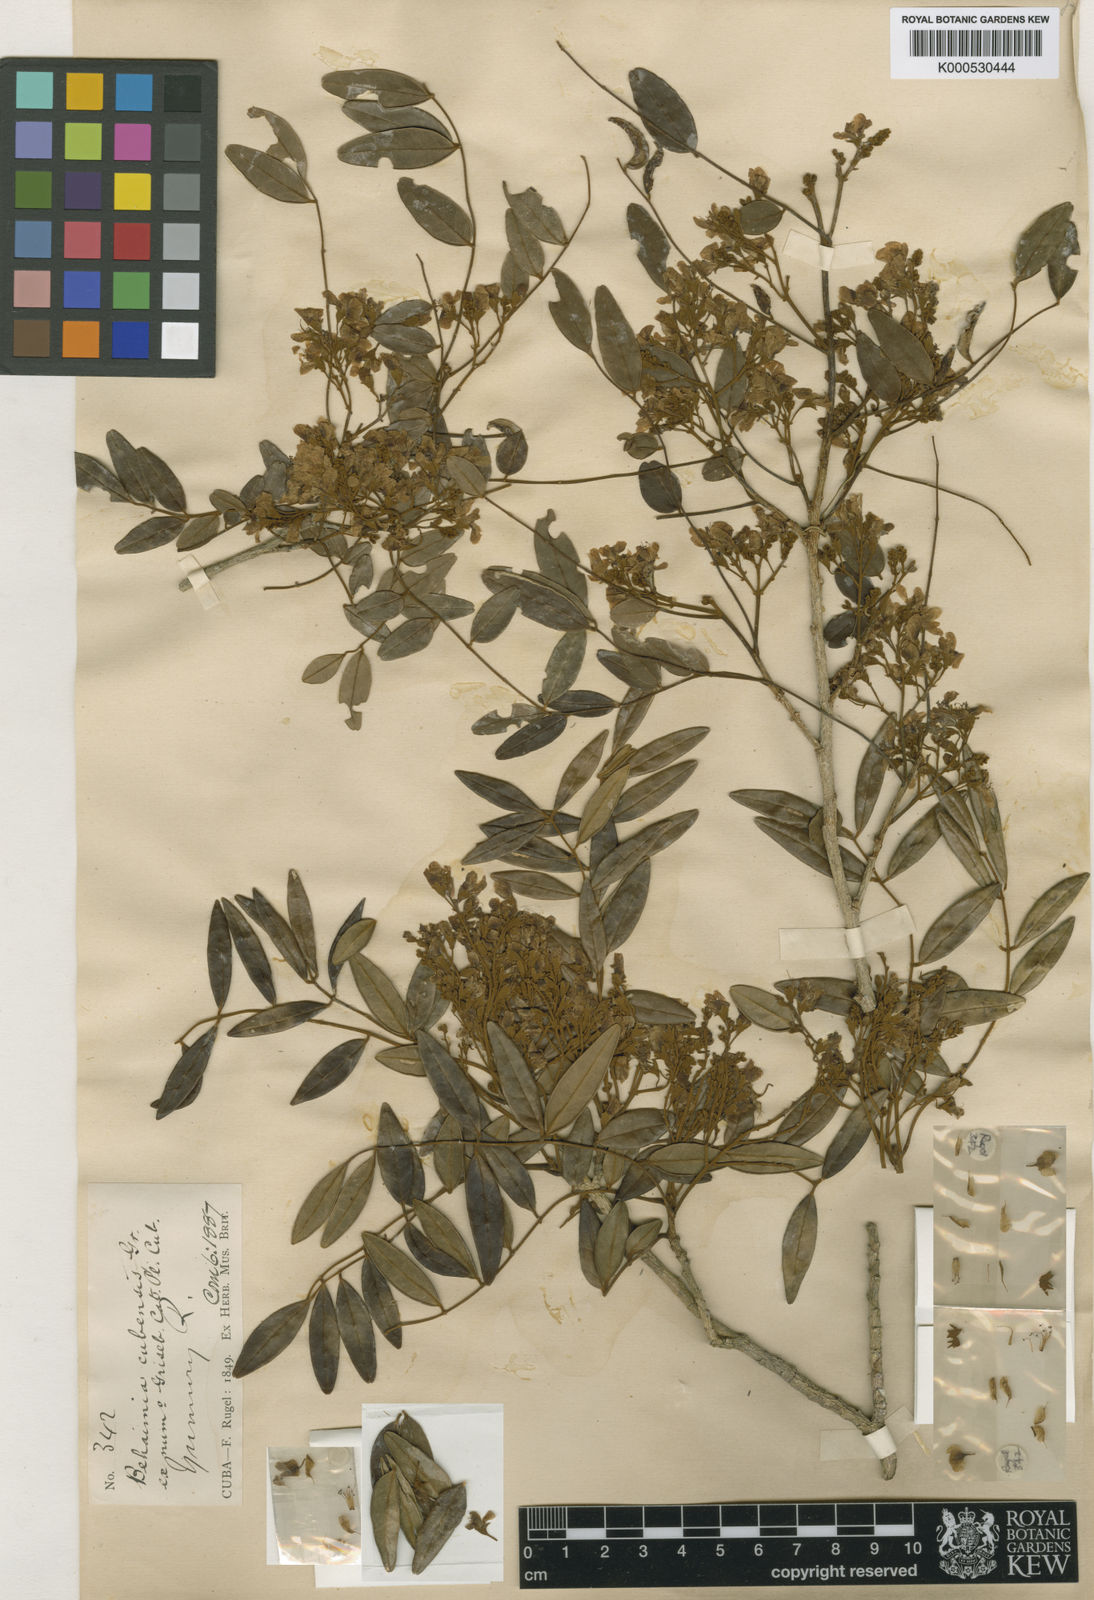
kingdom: Plantae
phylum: Tracheophyta
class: Magnoliopsida
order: Fabales
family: Fabaceae
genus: Behaimia
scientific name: Behaimia cubensis
